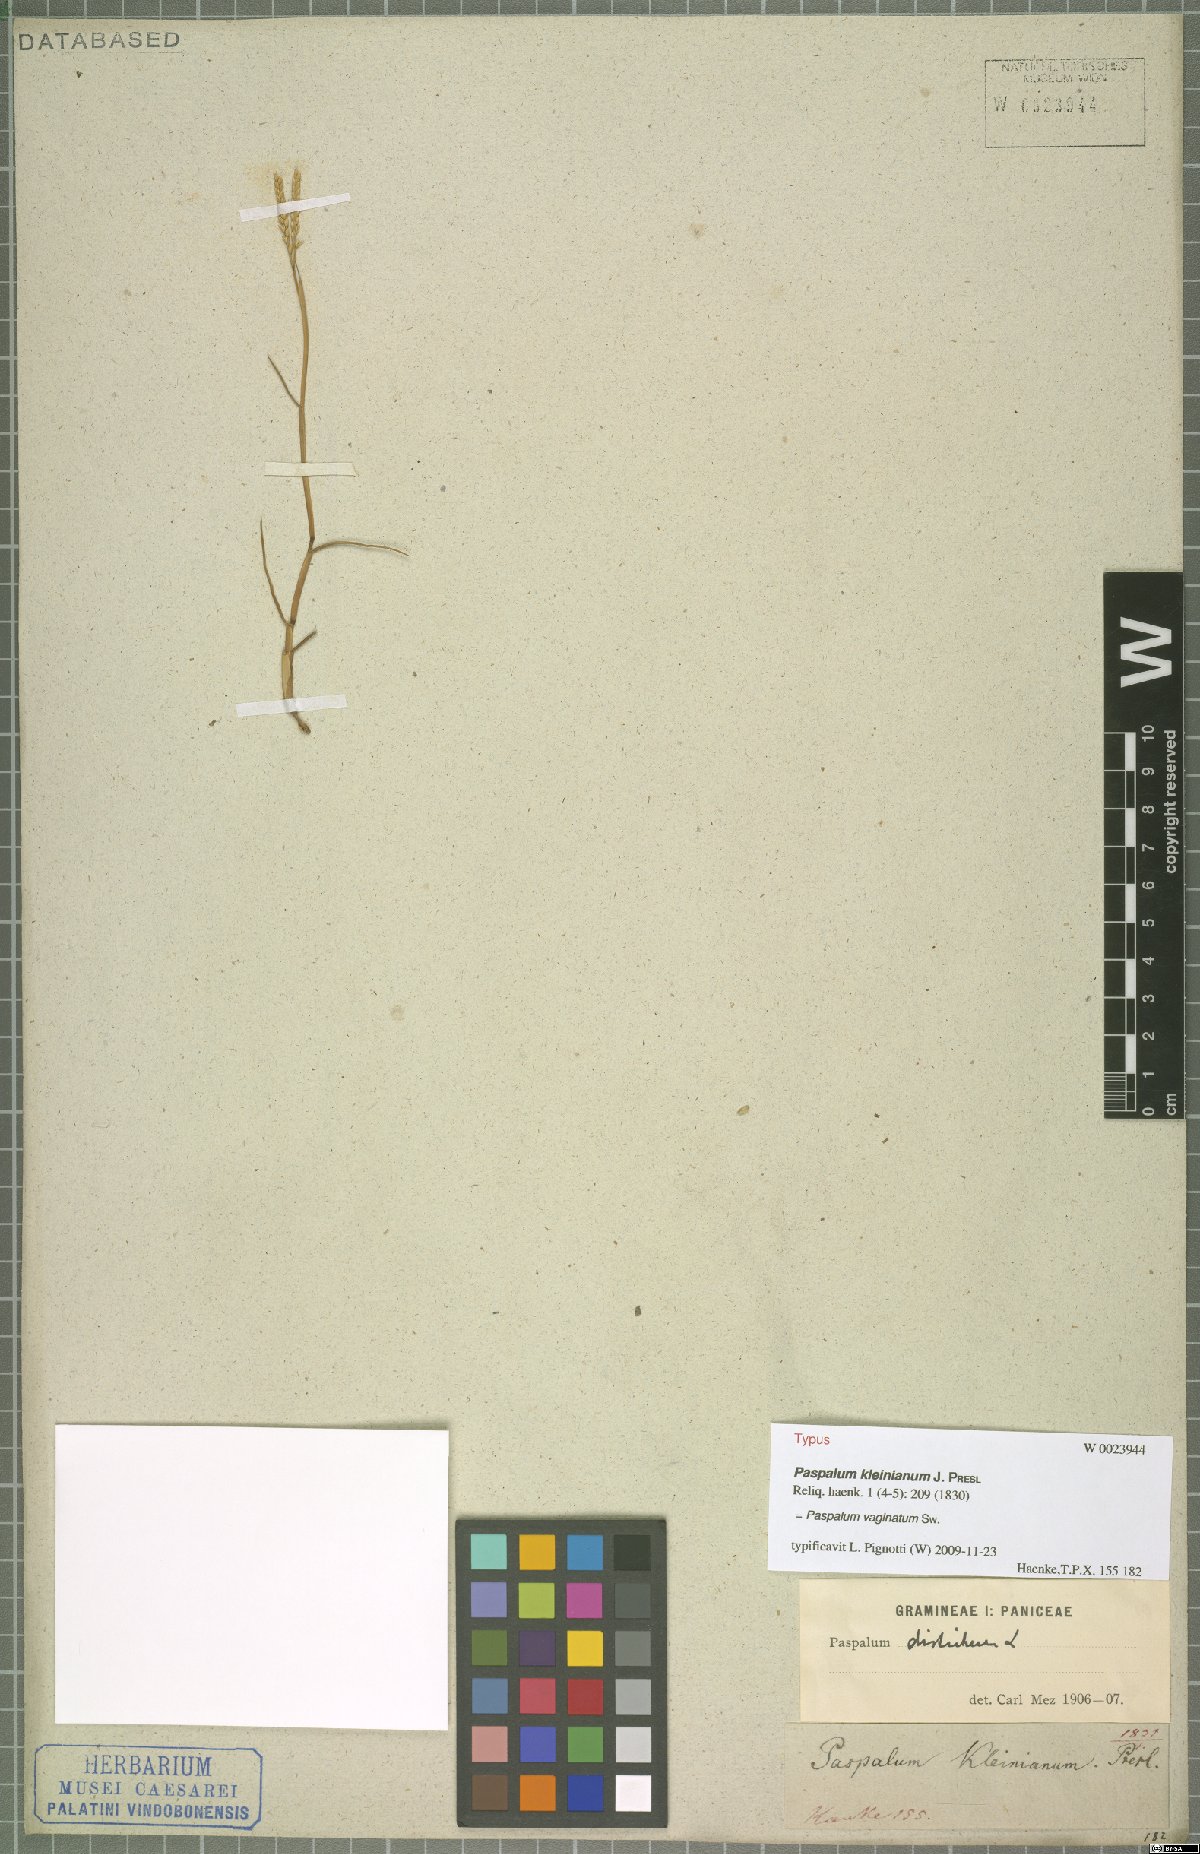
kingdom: Plantae
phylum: Tracheophyta
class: Liliopsida
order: Poales
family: Poaceae
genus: Paspalum
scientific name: Paspalum vaginatum
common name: Seashore paspalum
